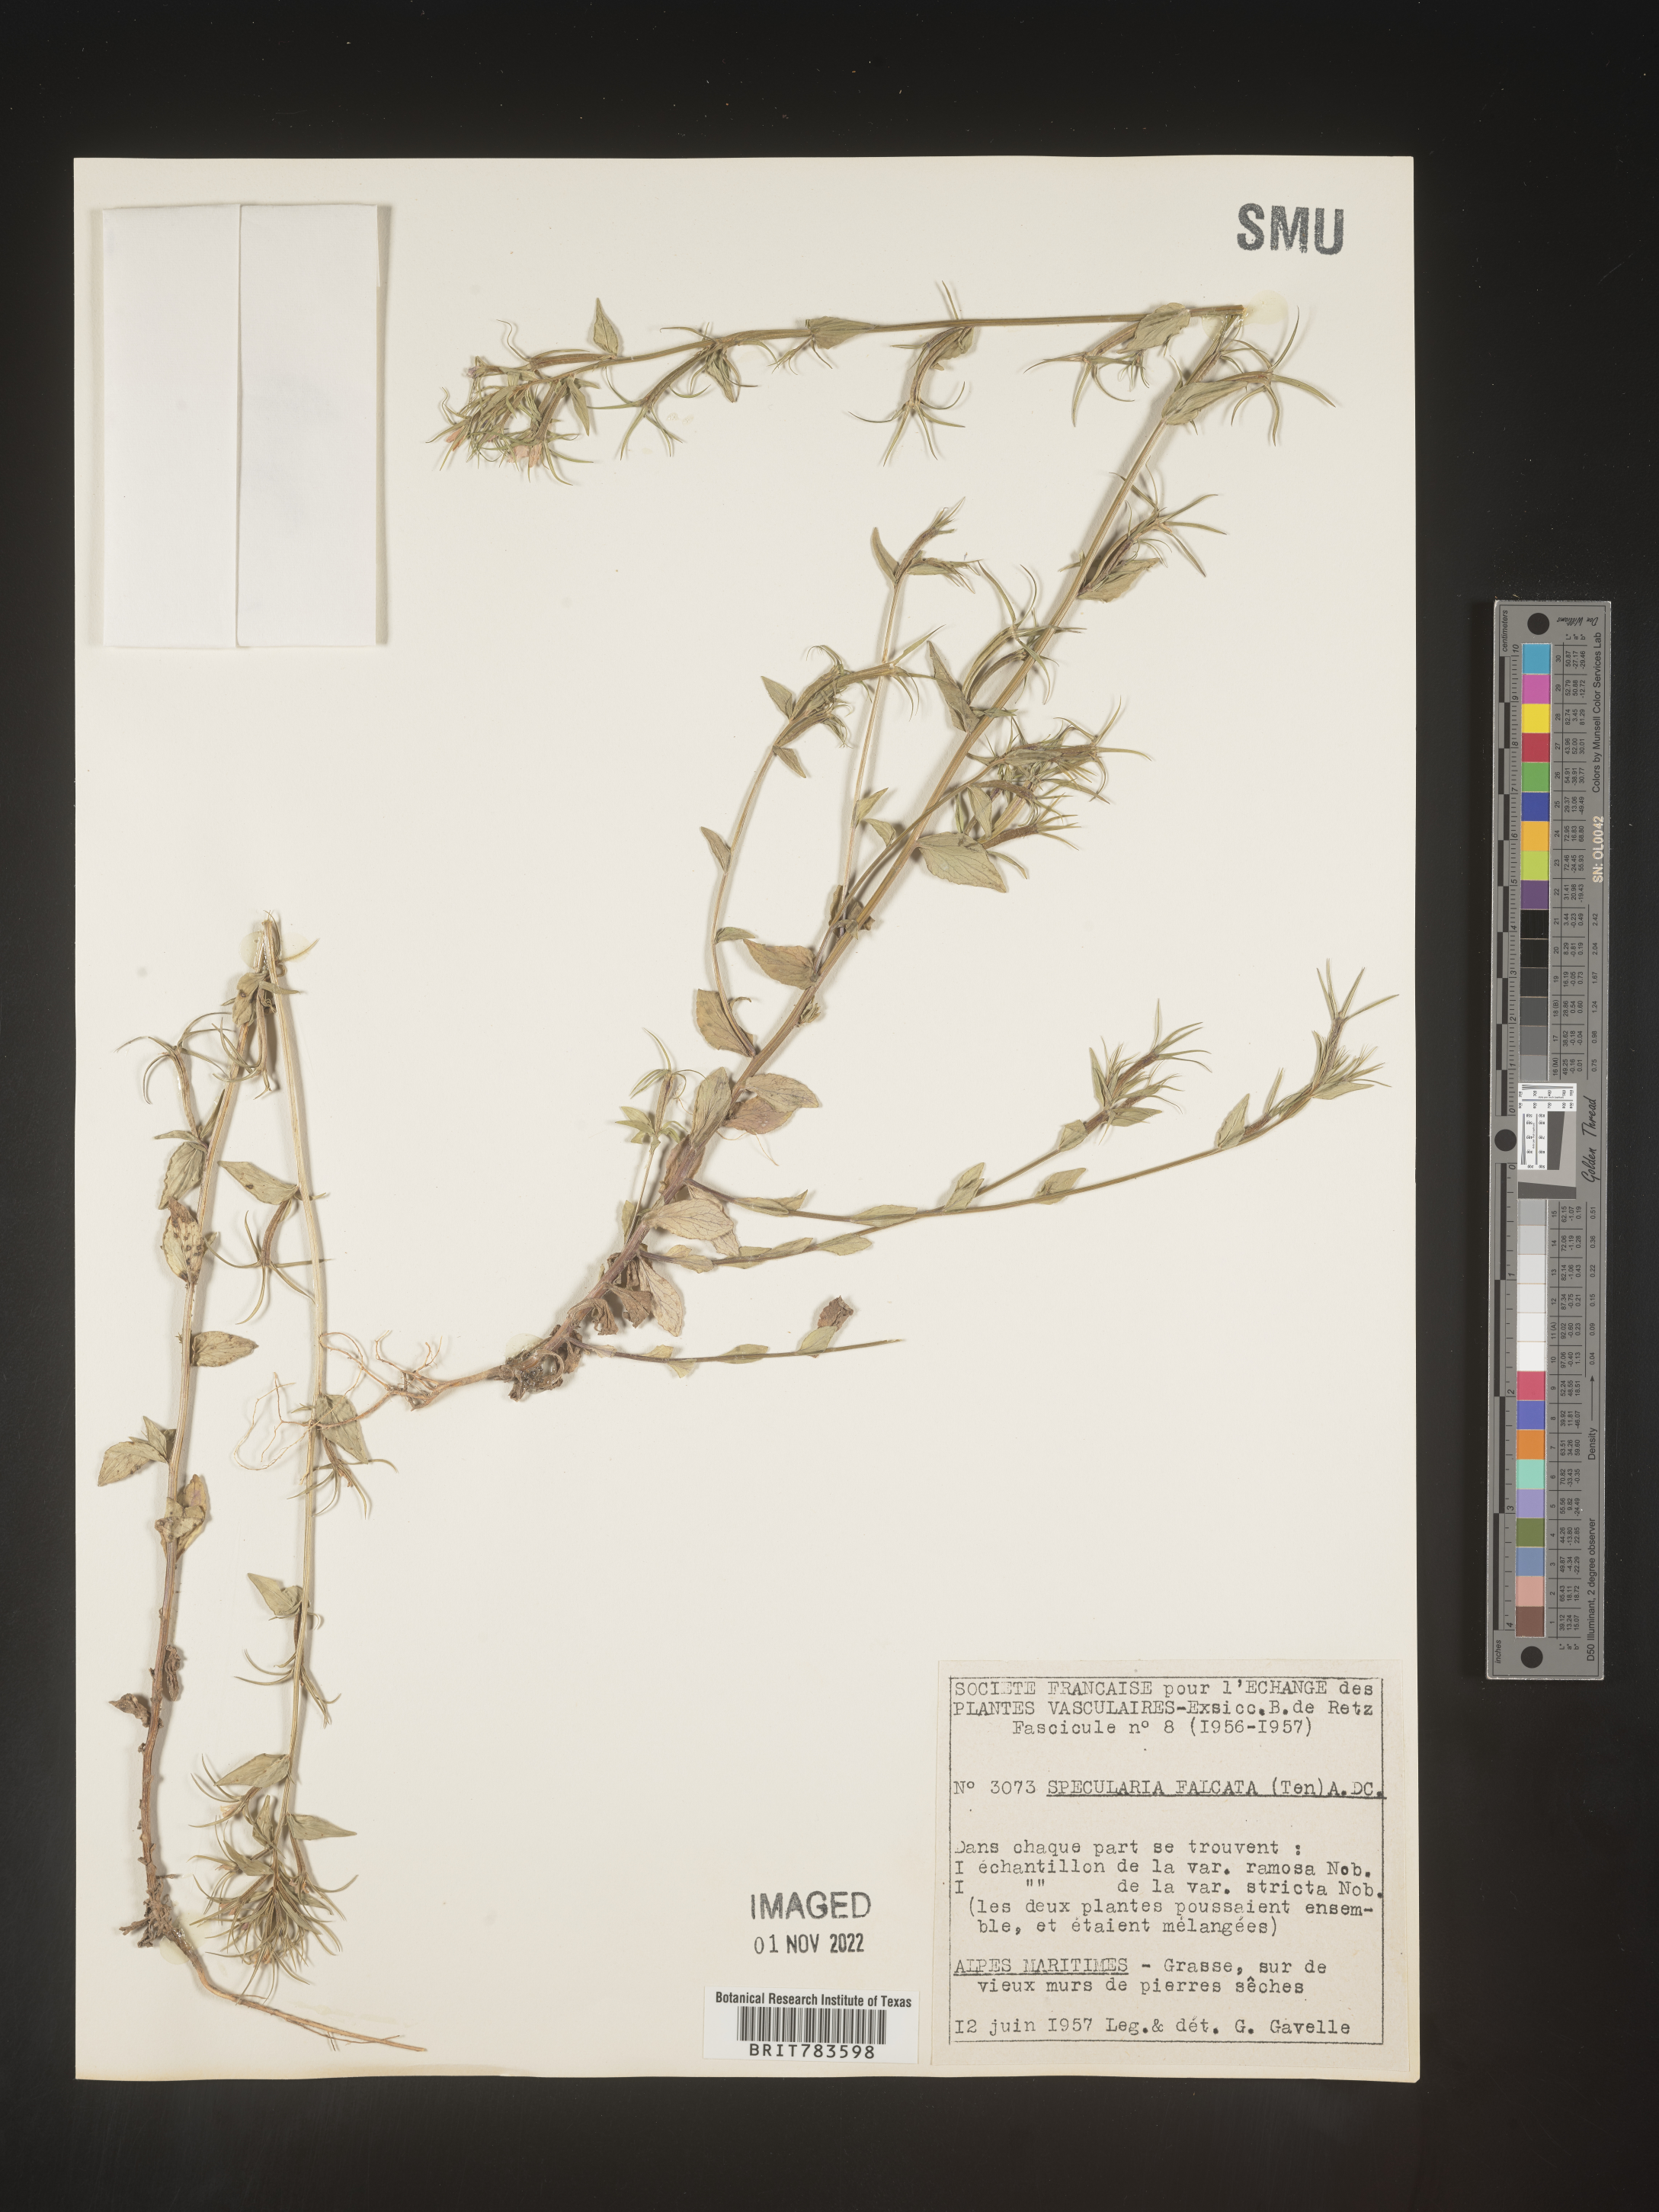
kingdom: Plantae
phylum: Tracheophyta
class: Magnoliopsida
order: Asterales
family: Campanulaceae
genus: Specularia
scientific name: Specularia
